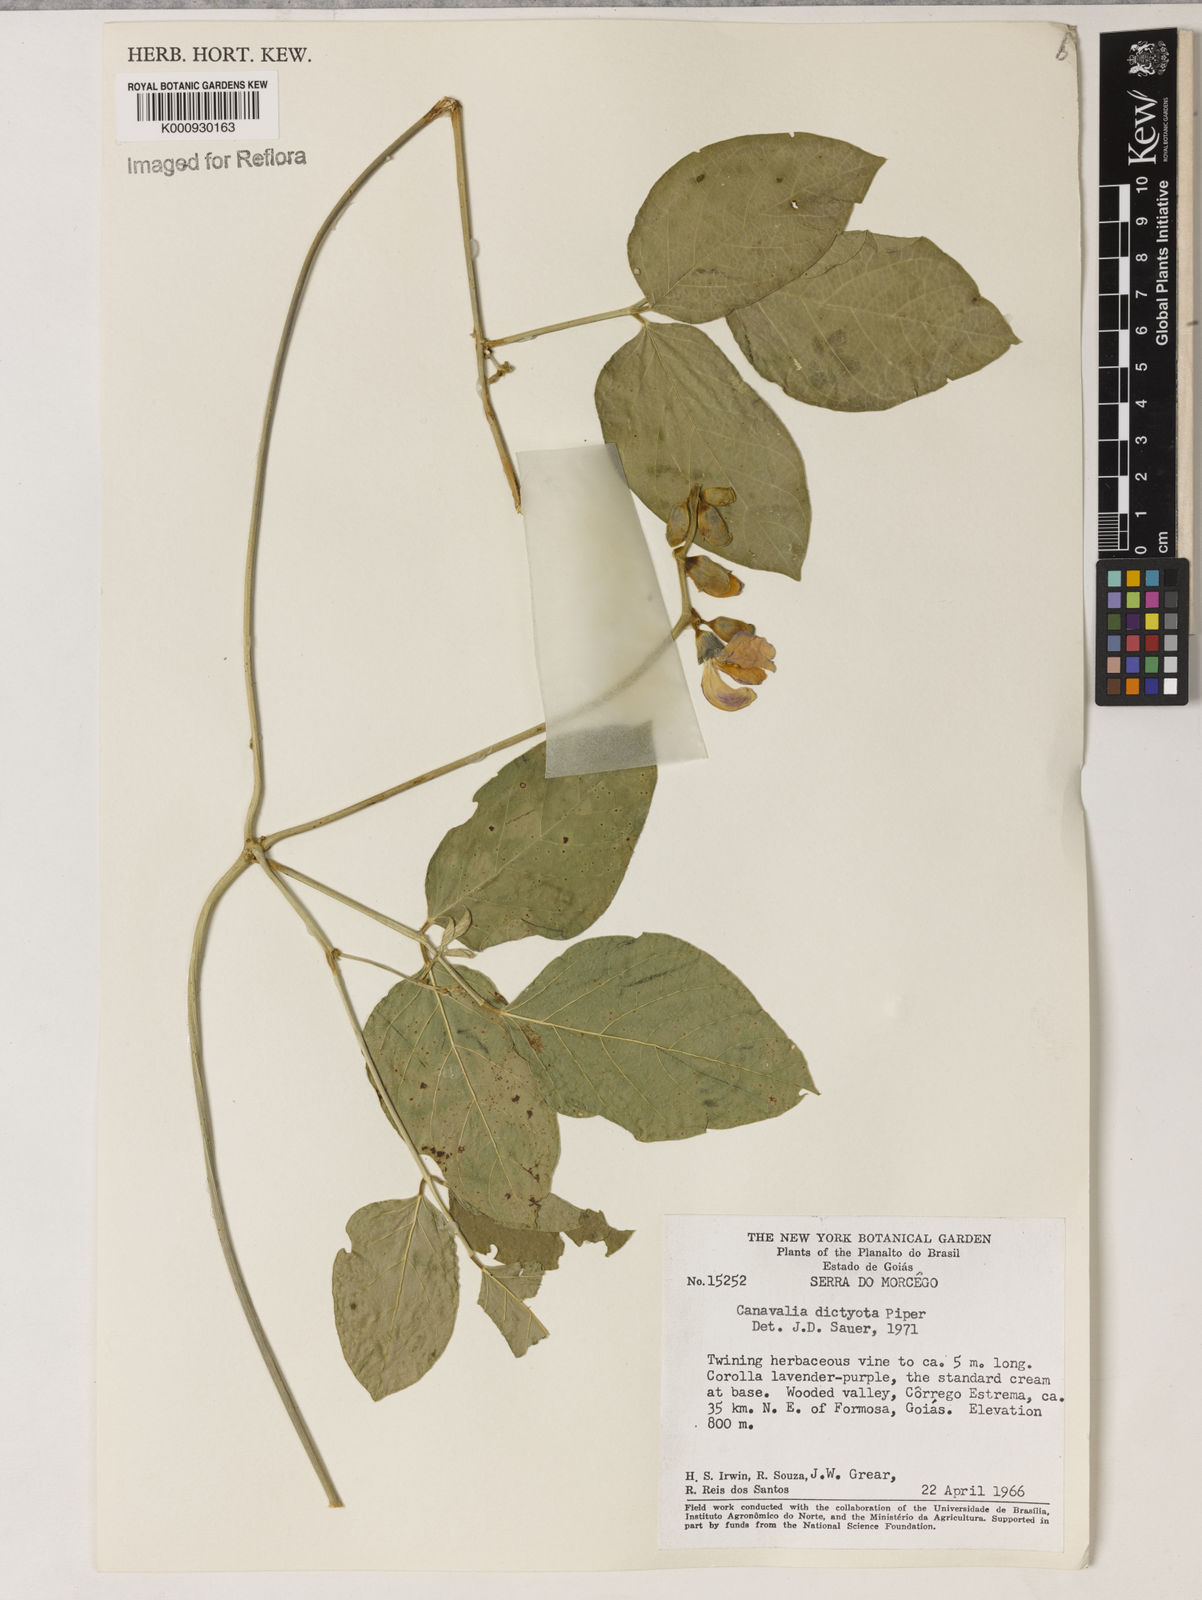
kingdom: Plantae
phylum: Tracheophyta
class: Magnoliopsida
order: Fabales
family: Fabaceae
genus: Canavalia
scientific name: Canavalia brasiliensis
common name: Barbicou-bean
